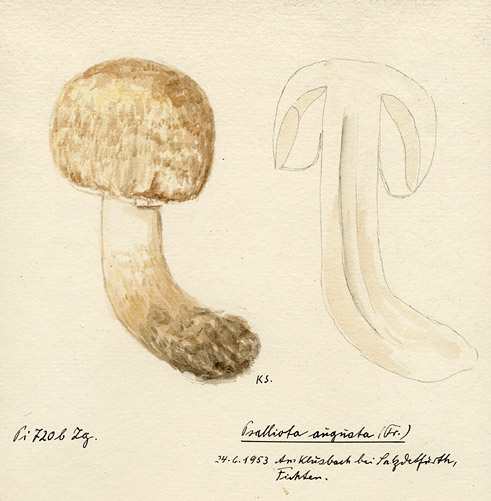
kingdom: Fungi
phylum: Basidiomycota
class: Agaricomycetes
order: Agaricales
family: Agaricaceae
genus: Agaricus
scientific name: Agaricus augustus
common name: Prince
